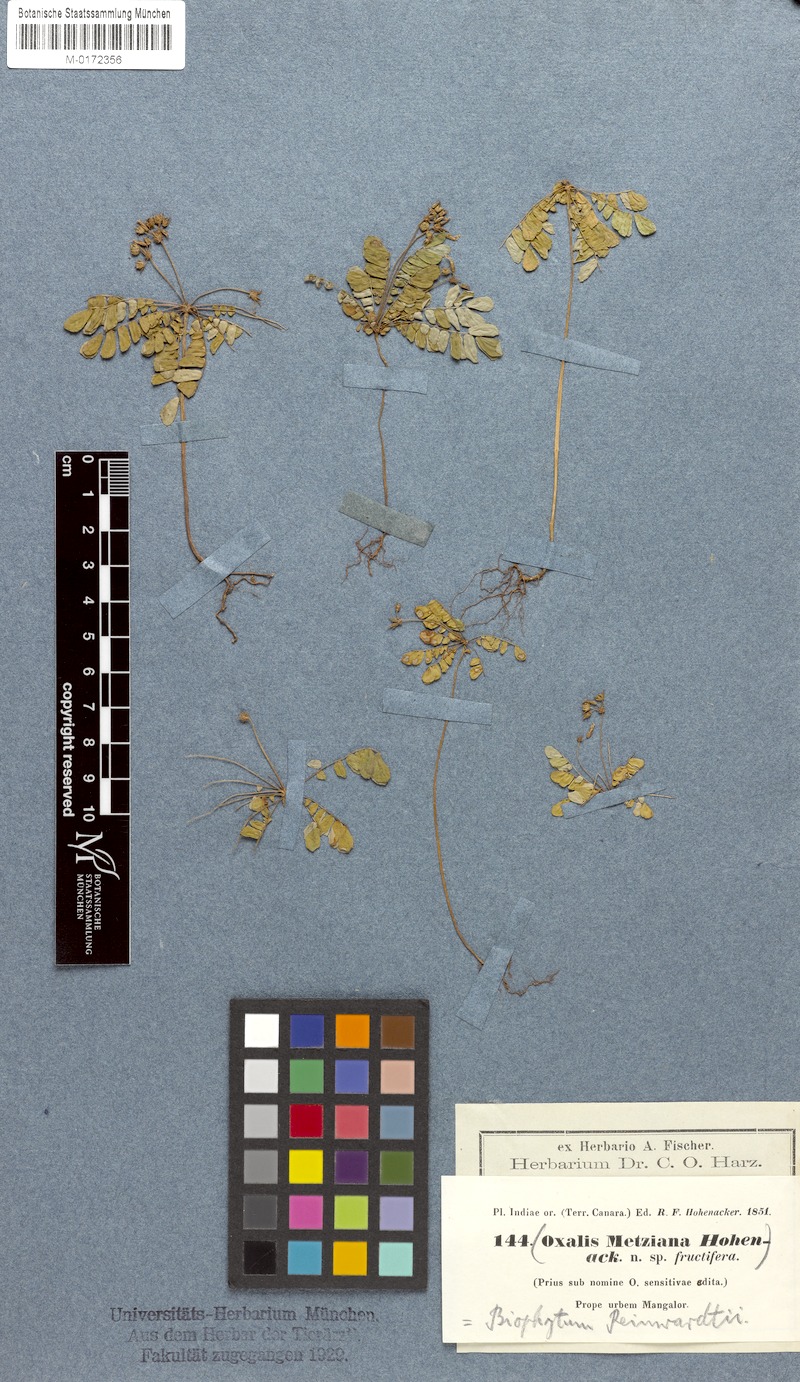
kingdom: Plantae
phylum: Tracheophyta
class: Magnoliopsida
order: Oxalidales
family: Oxalidaceae
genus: Biophytum
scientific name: Biophytum sensitivum
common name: Lifeplant
